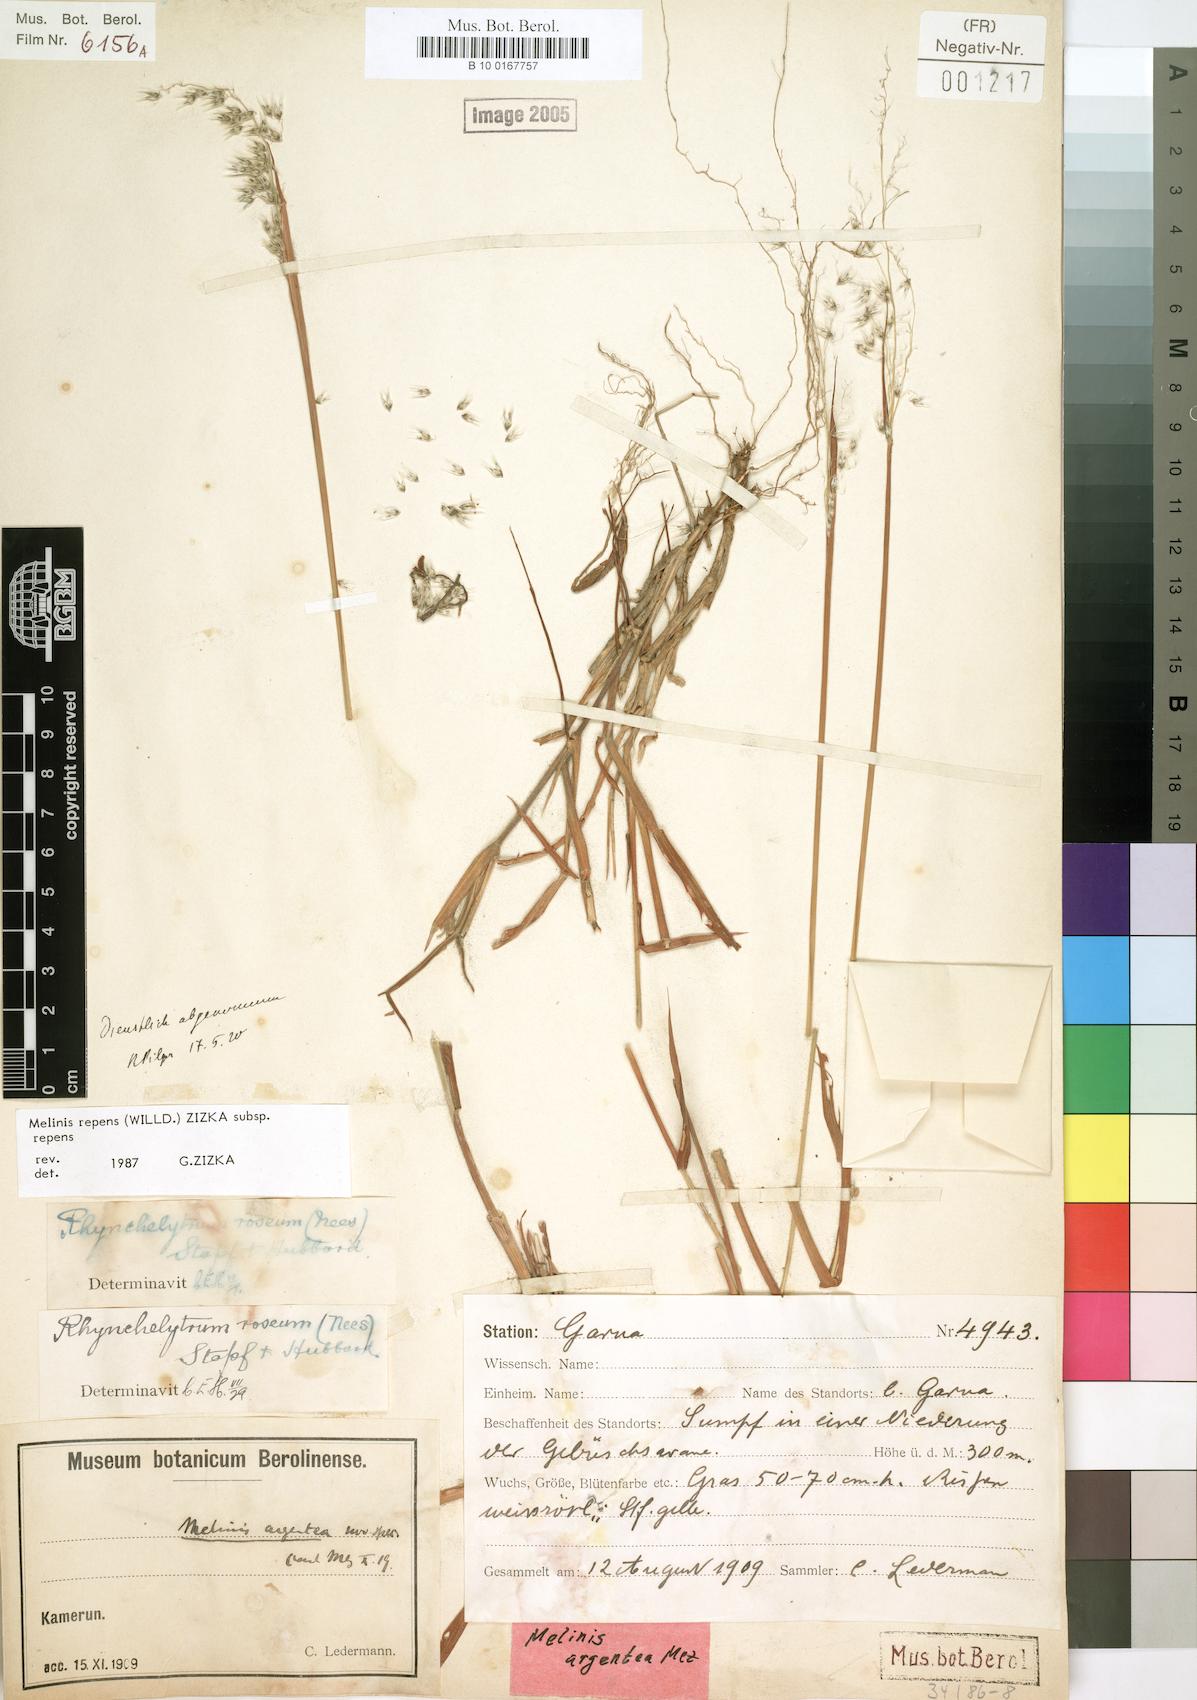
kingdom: Plantae
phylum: Tracheophyta
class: Liliopsida
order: Poales
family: Poaceae
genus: Melinis
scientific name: Melinis repens
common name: Rose natal grass
